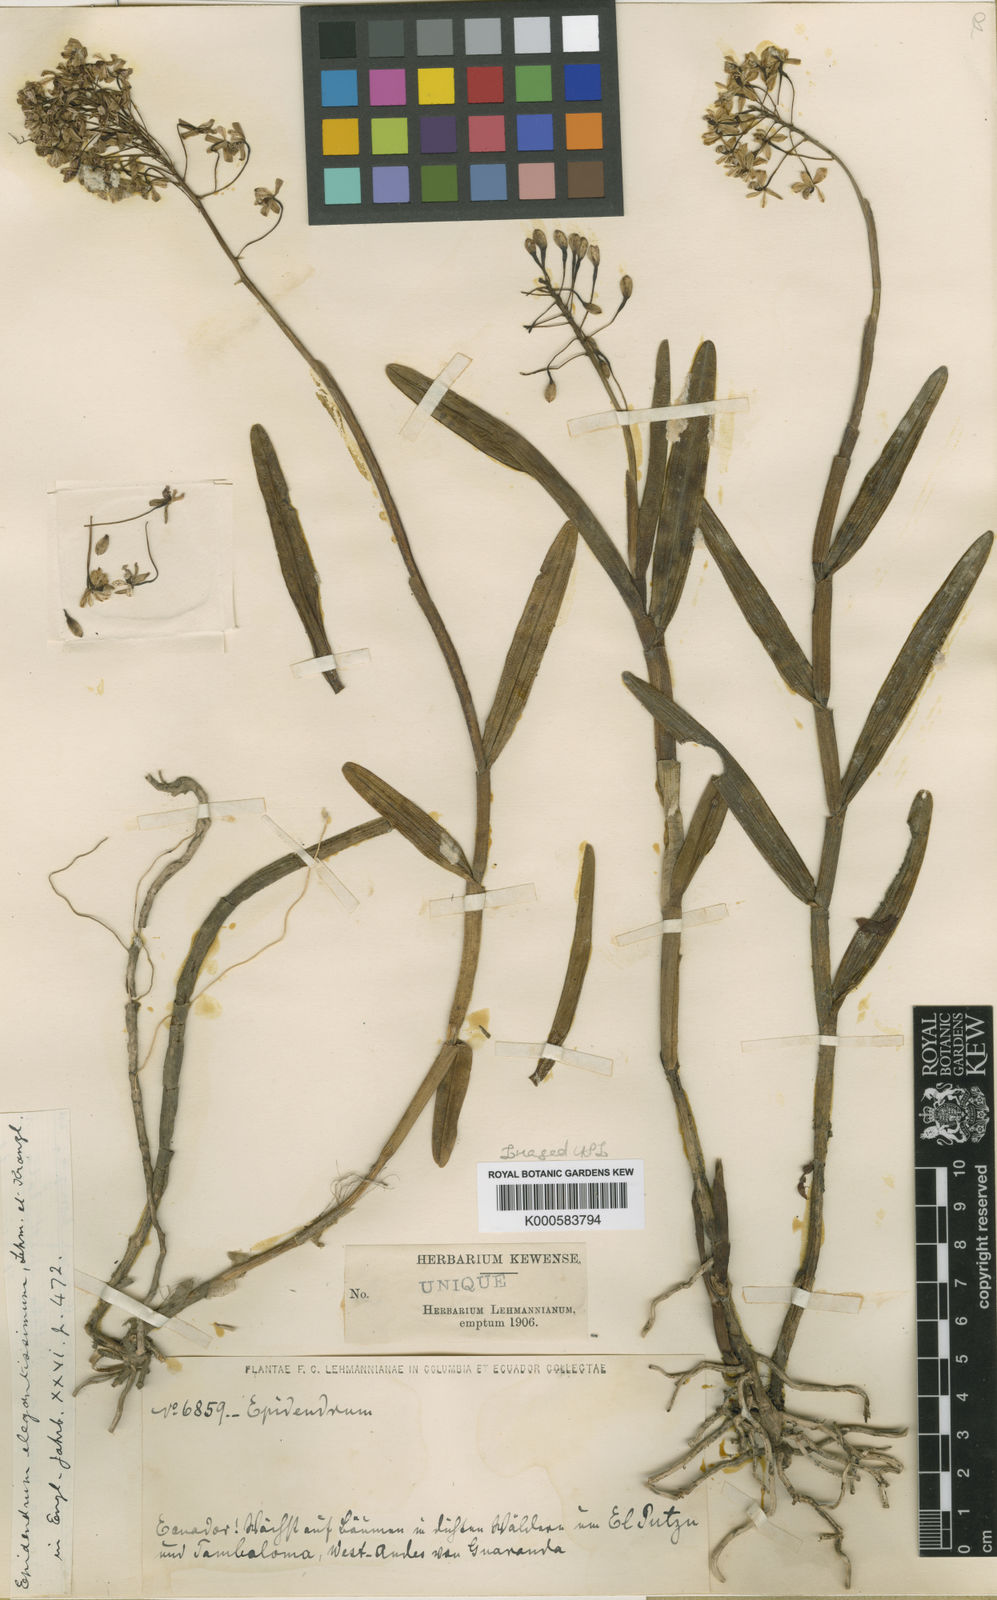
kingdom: Plantae
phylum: Tracheophyta
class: Liliopsida
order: Asparagales
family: Orchidaceae
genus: Epidendrum
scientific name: Epidendrum elegantissimum
